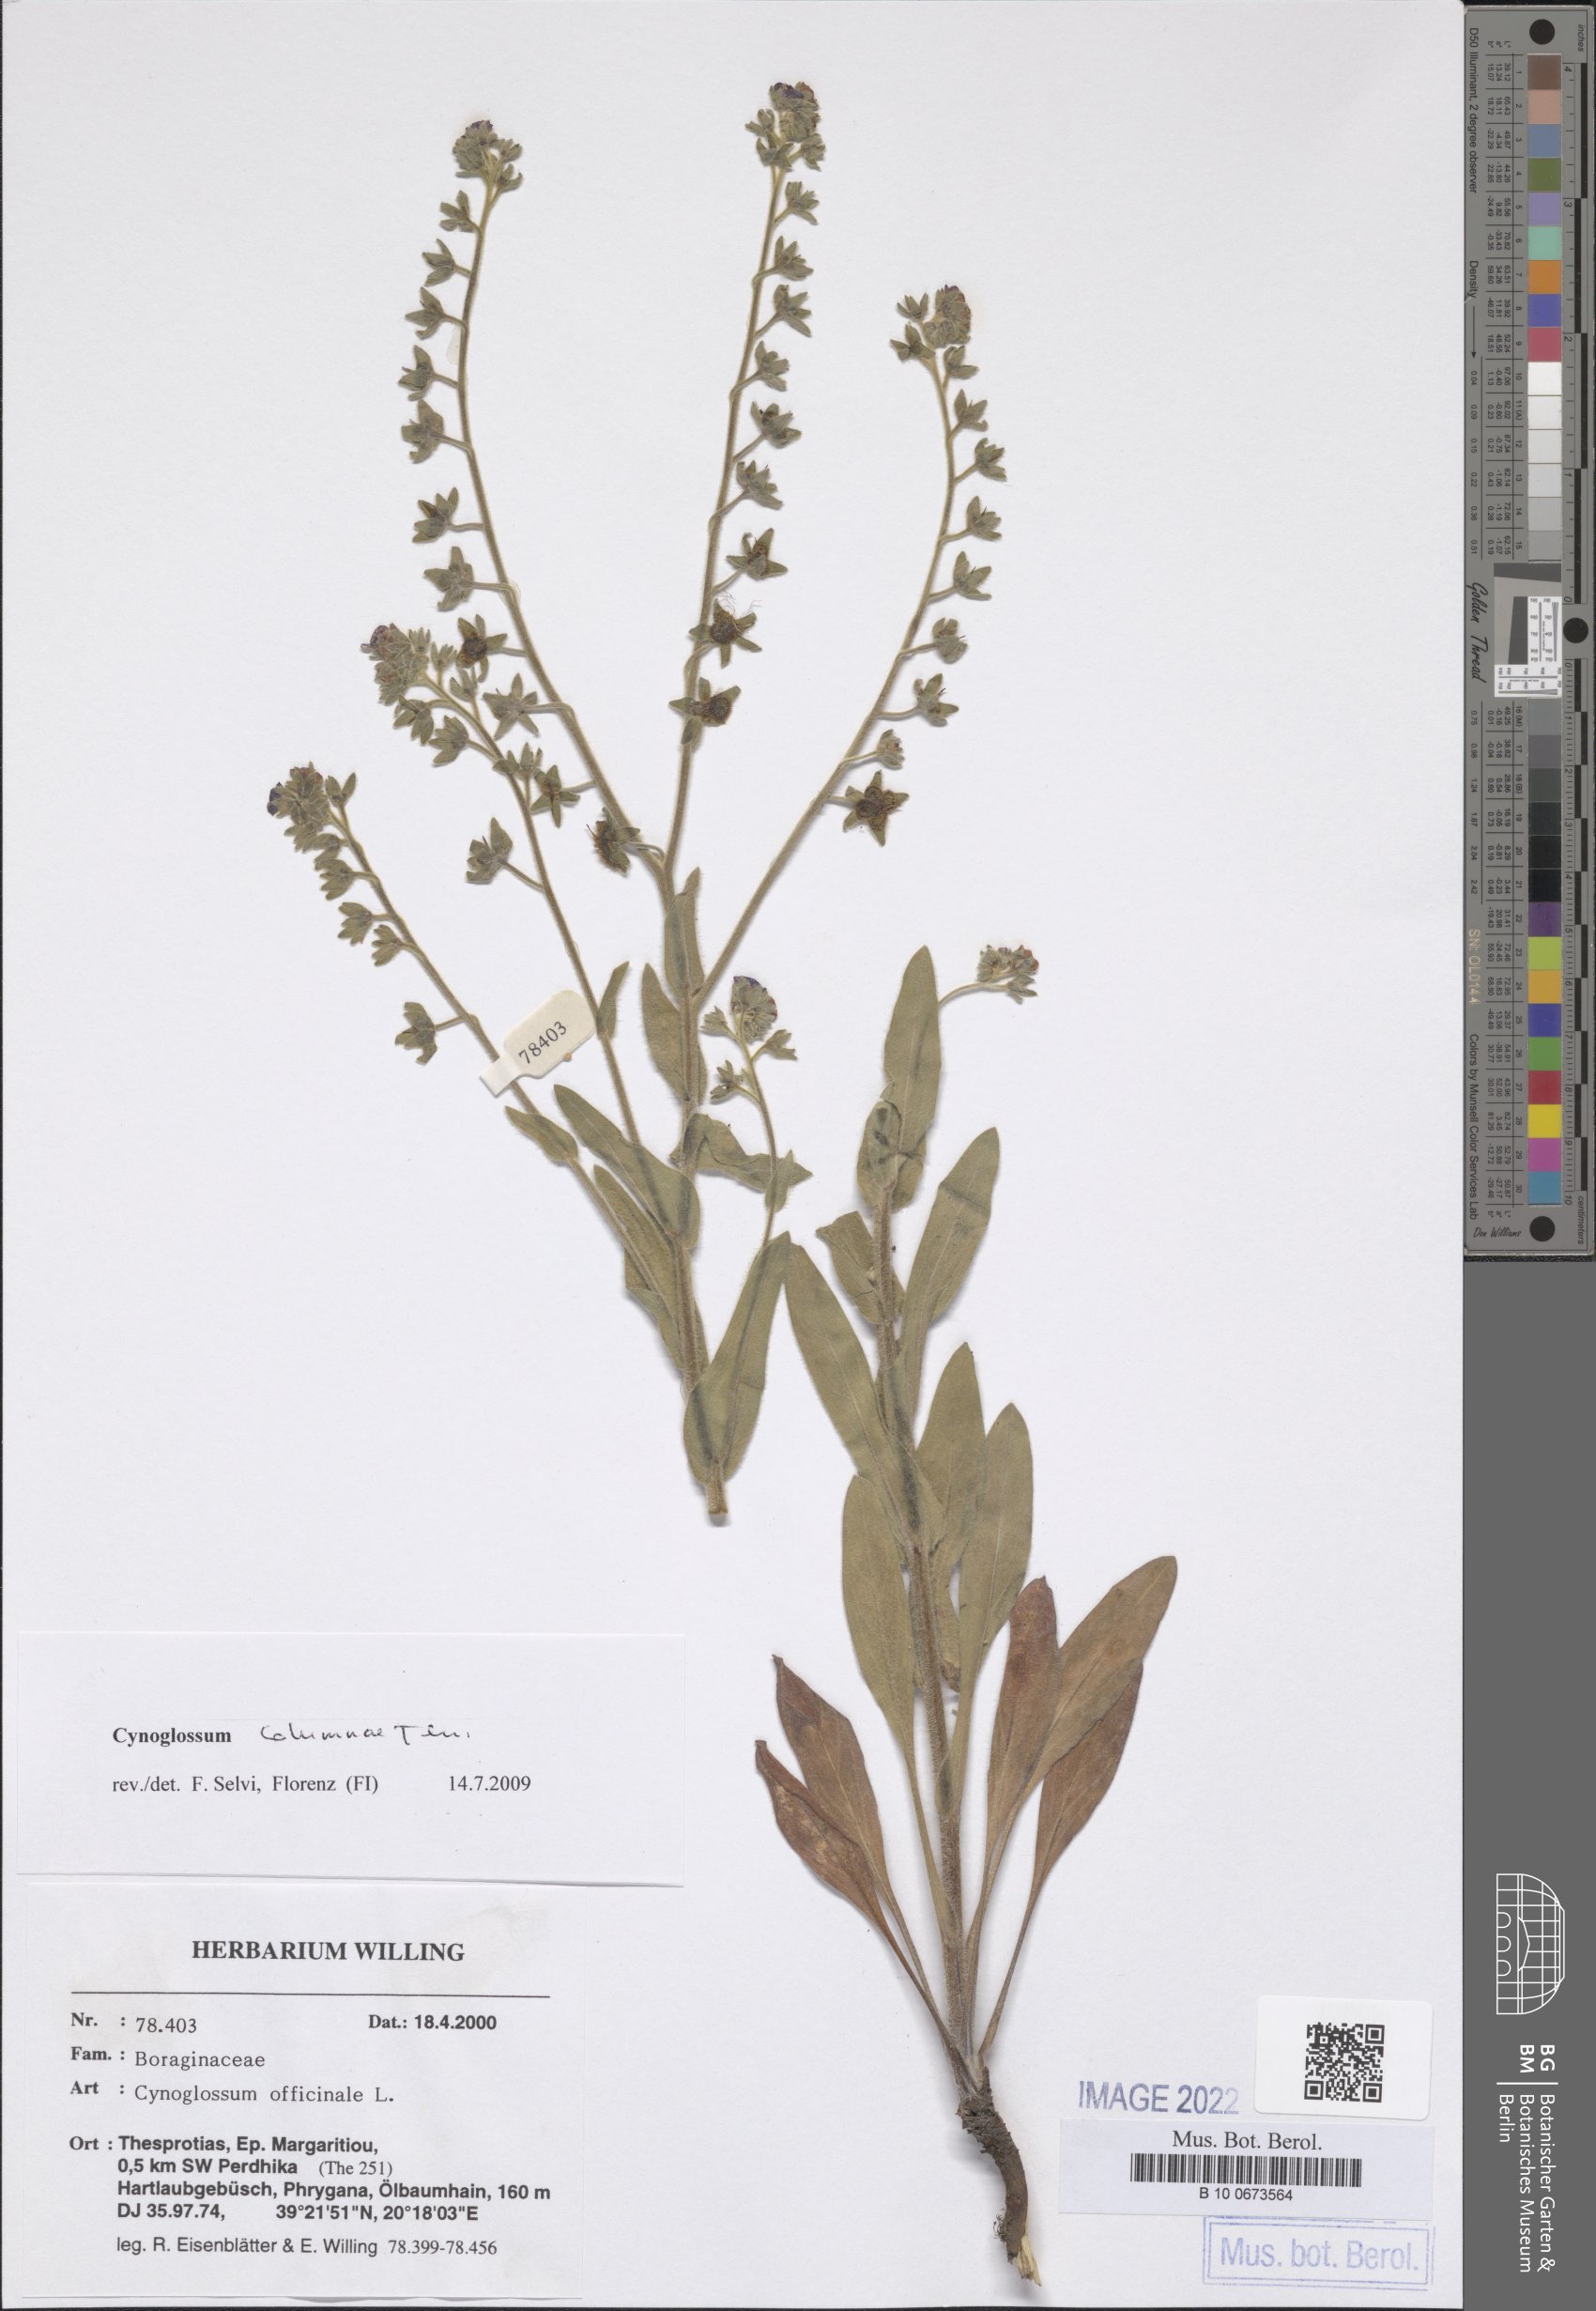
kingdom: Plantae
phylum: Tracheophyta
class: Magnoliopsida
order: Boraginales
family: Boraginaceae
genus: Rindera
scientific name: Rindera columnae
